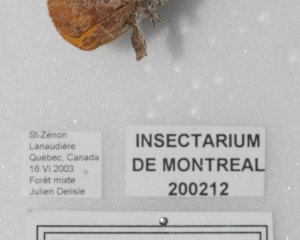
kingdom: Animalia
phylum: Arthropoda
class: Insecta
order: Lepidoptera
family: Lycaenidae
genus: Feniseca
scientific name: Feniseca tarquinius
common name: Harvester
